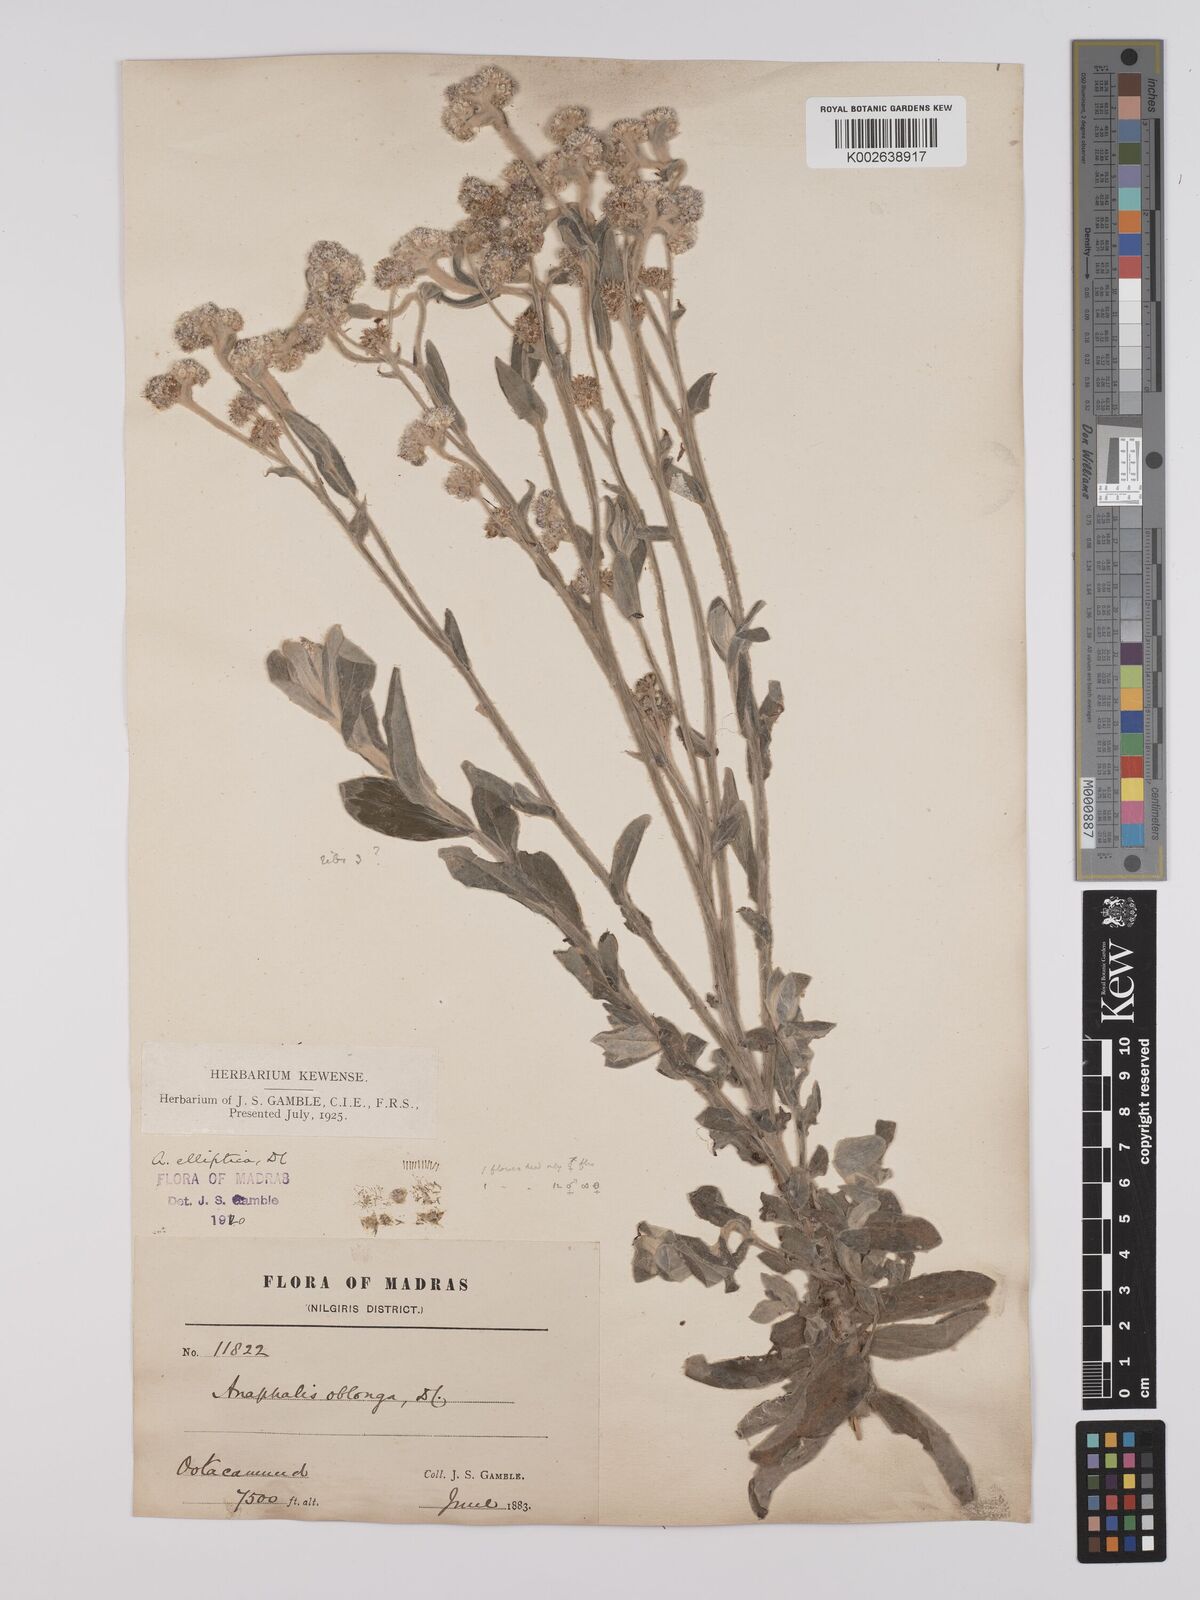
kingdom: Plantae
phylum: Tracheophyta
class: Magnoliopsida
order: Asterales
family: Asteraceae
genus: Anaphalis
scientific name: Anaphalis elliptica
